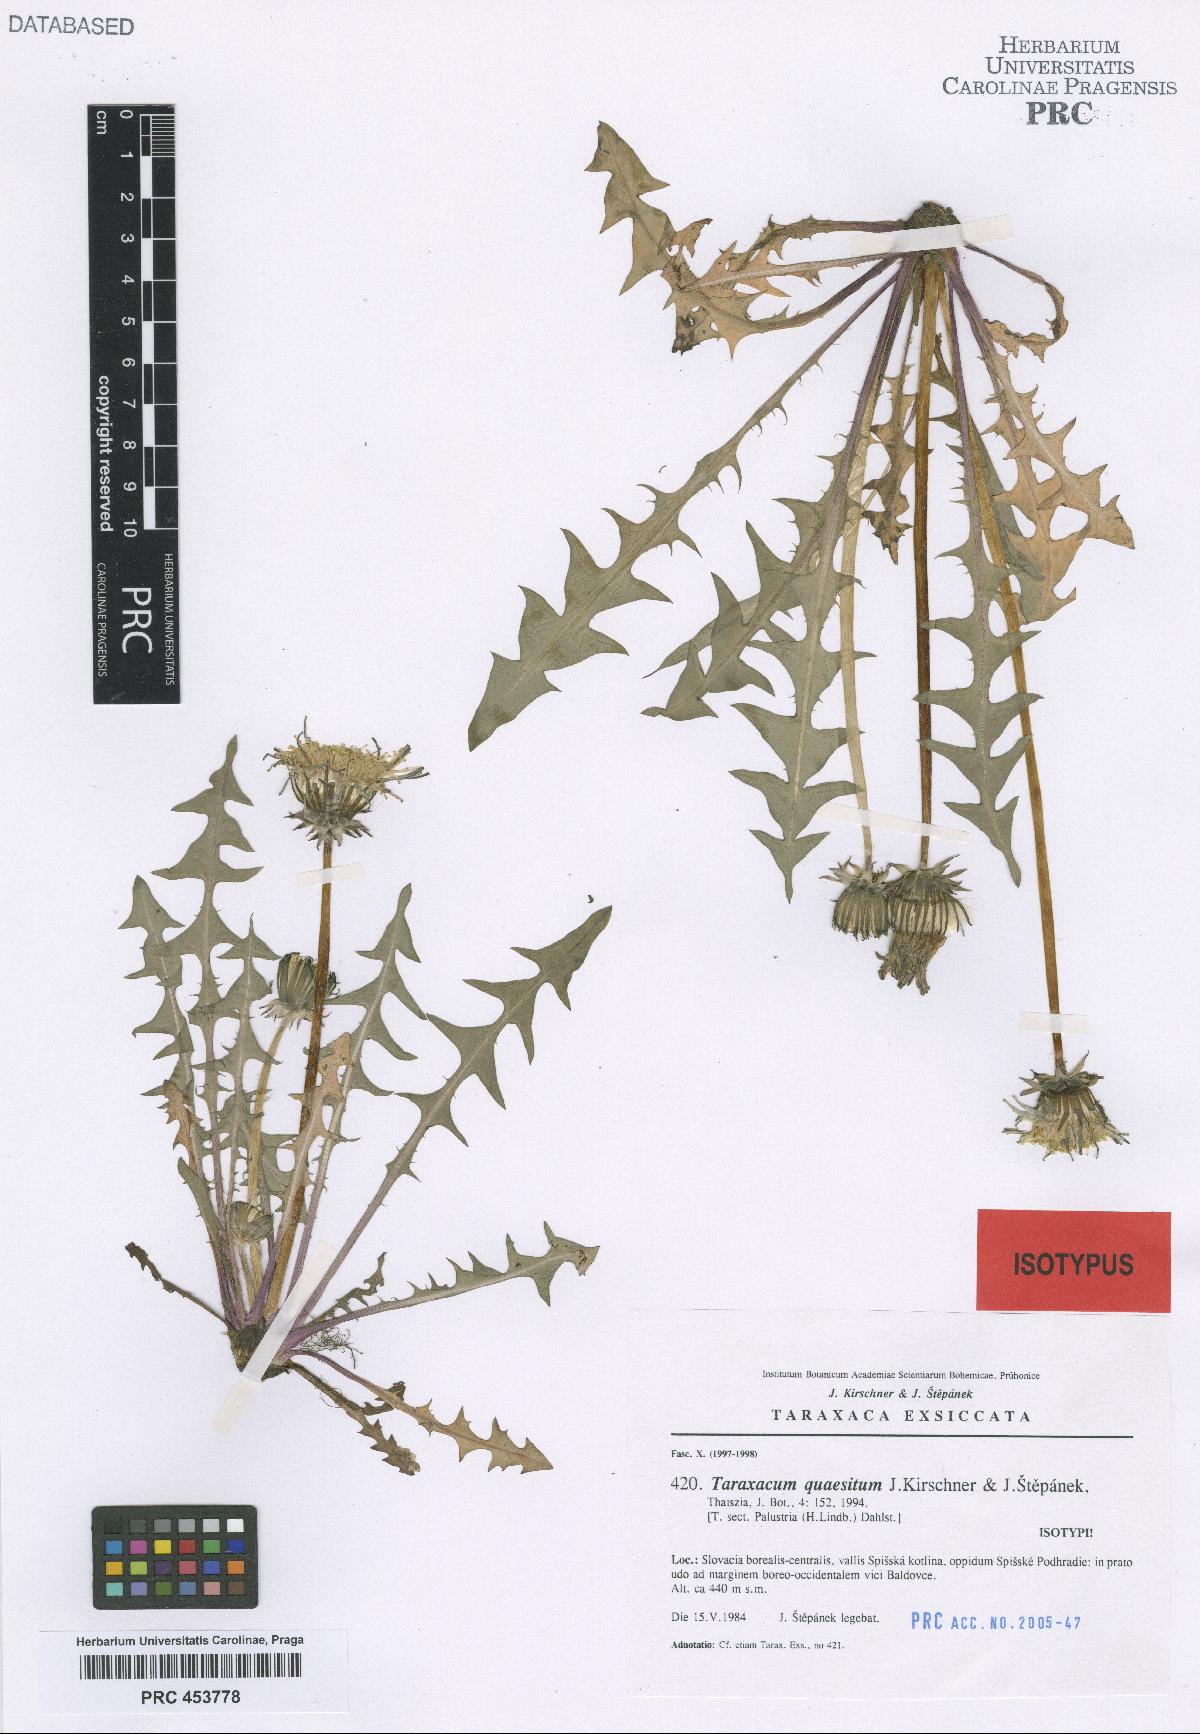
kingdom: Plantae
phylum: Tracheophyta
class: Magnoliopsida
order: Asterales
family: Asteraceae
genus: Taraxacum
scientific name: Taraxacum quaesitum
